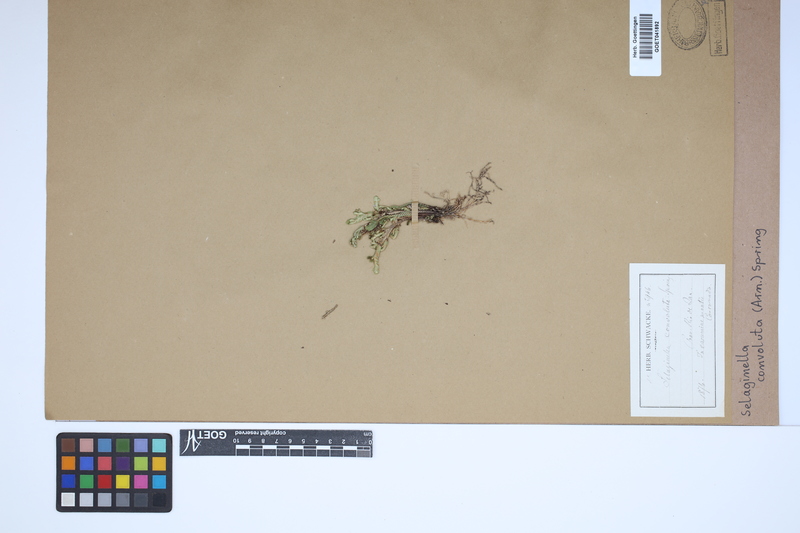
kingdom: Plantae
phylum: Tracheophyta
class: Lycopodiopsida
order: Selaginellales
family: Selaginellaceae
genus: Selaginella
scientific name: Selaginella convoluta
